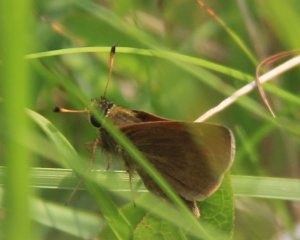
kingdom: Animalia
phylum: Arthropoda
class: Insecta
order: Lepidoptera
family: Hesperiidae
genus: Polites
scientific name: Polites themistocles
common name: Tawny-edged Skipper
